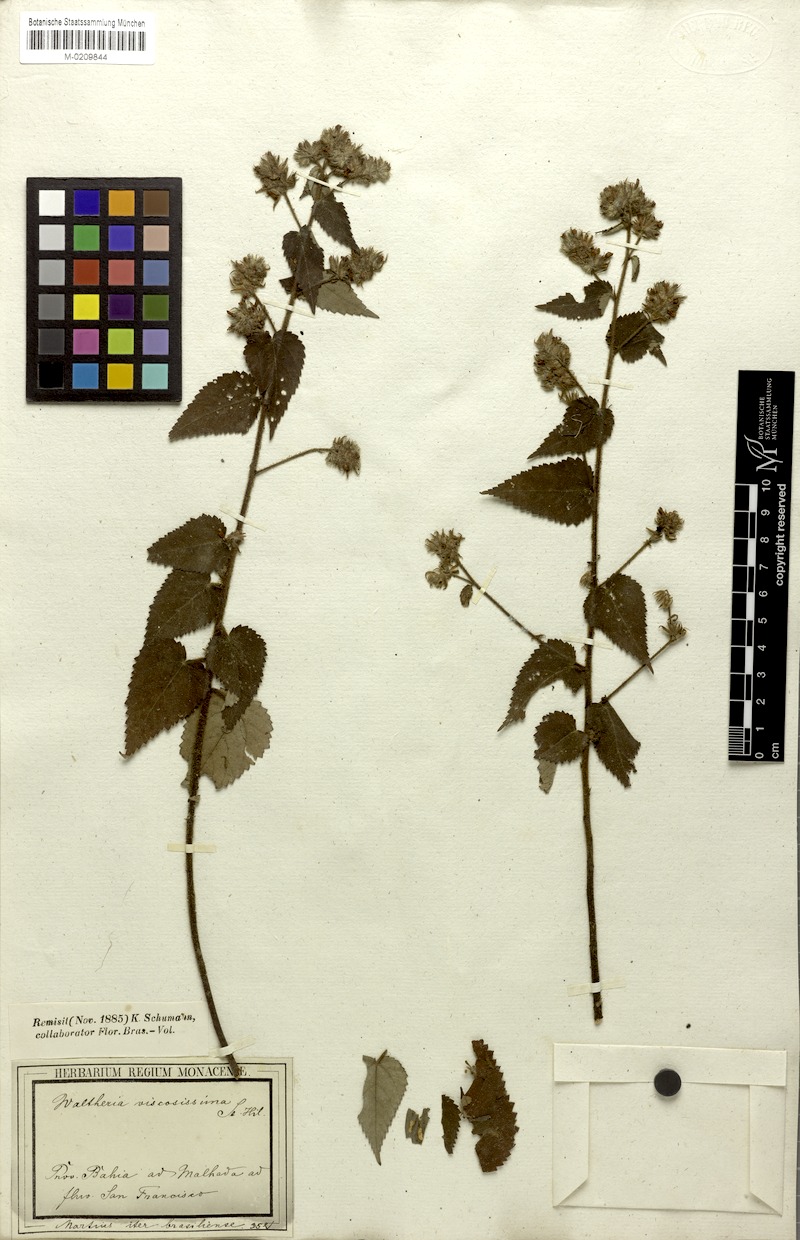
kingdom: Plantae
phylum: Tracheophyta
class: Magnoliopsida
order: Malvales
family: Malvaceae
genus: Waltheria
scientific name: Waltheria viscosissima
